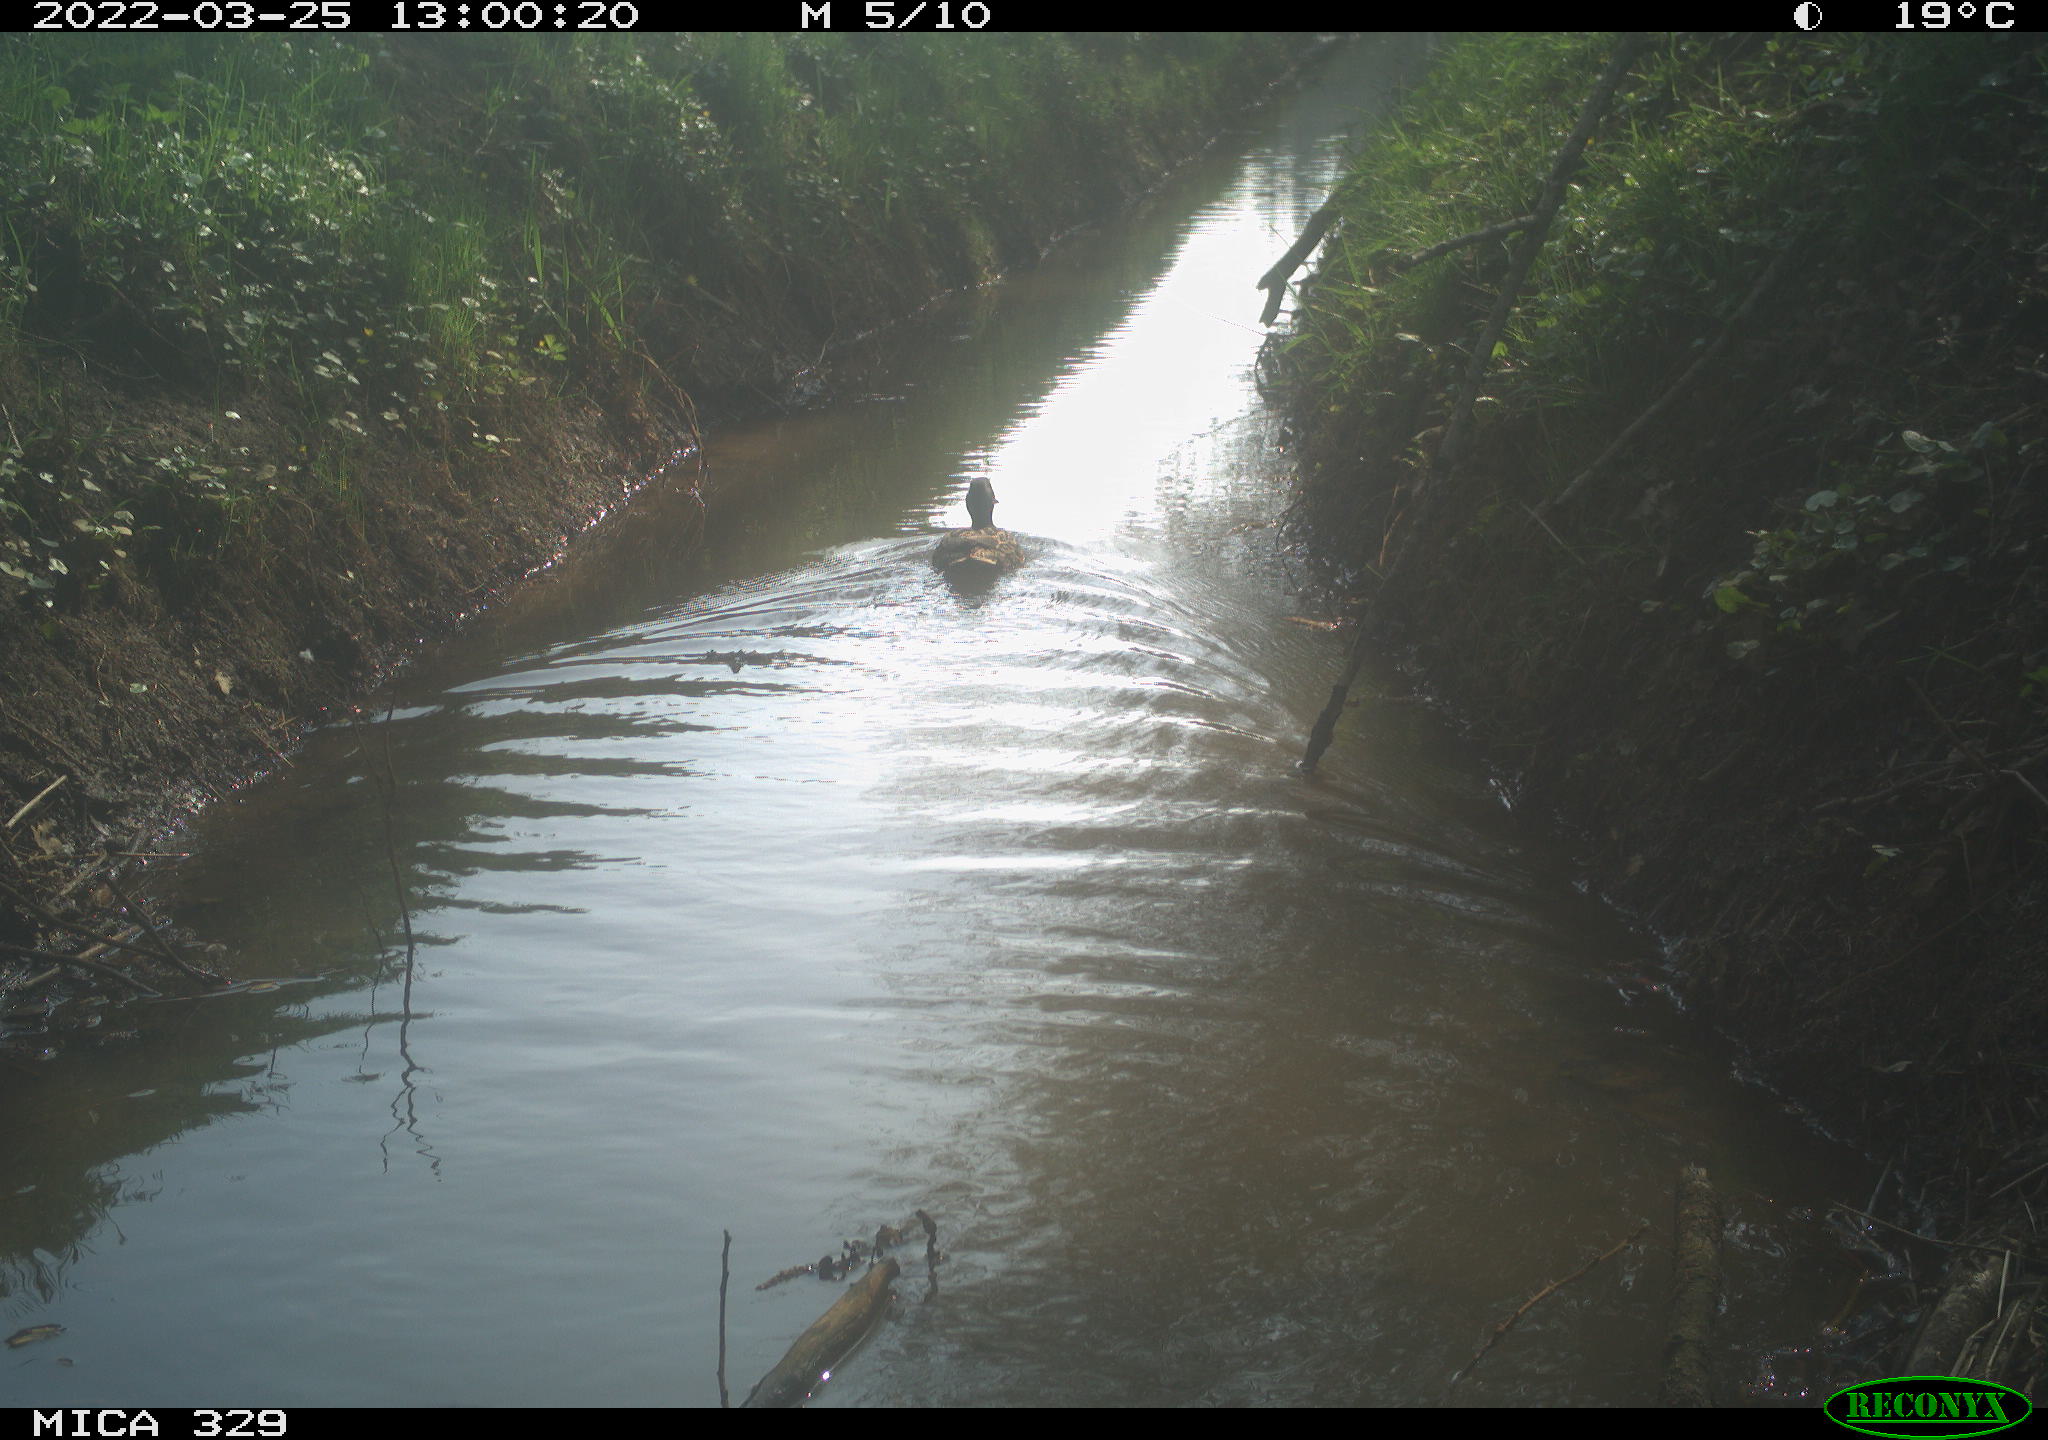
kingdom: Animalia
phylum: Chordata
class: Aves
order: Anseriformes
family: Anatidae
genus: Anas
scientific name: Anas platyrhynchos
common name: Mallard
